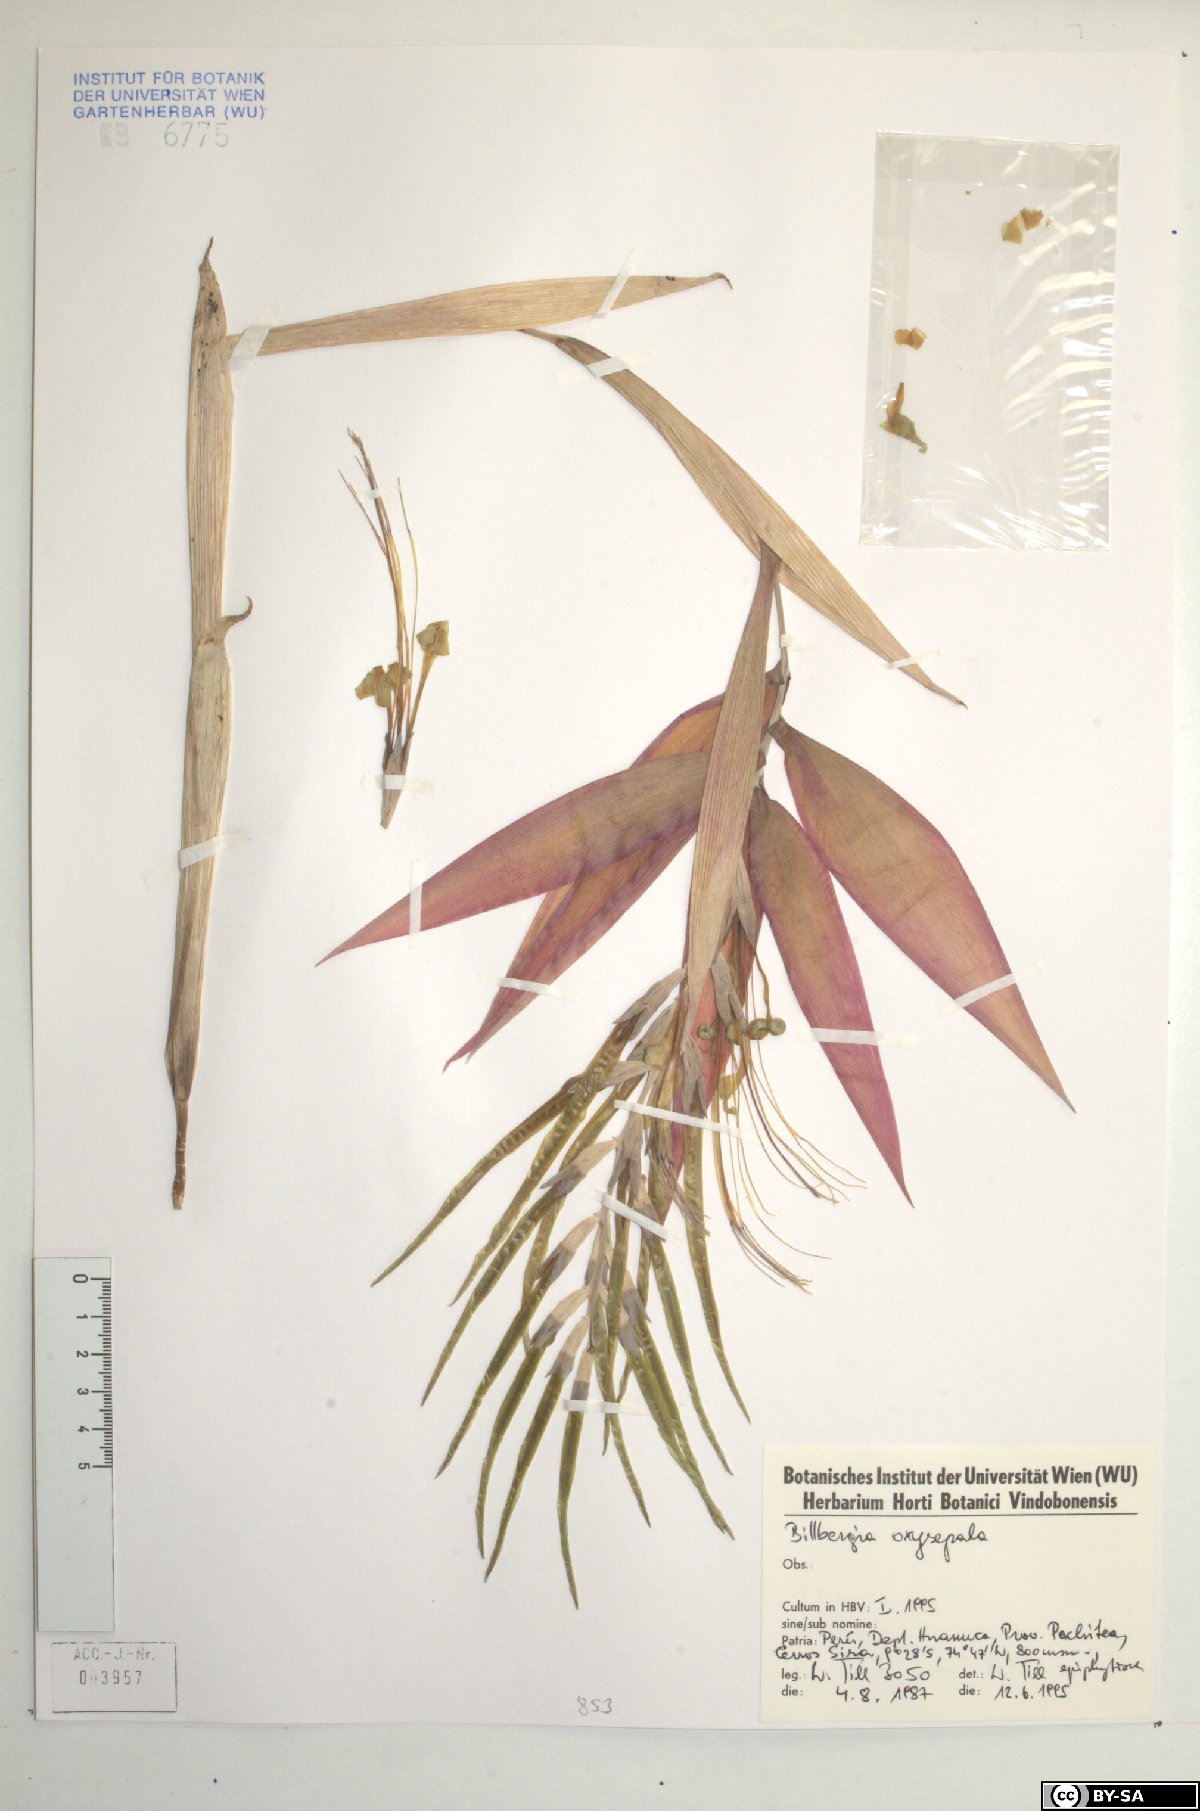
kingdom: Plantae
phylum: Tracheophyta
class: Liliopsida
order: Poales
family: Bromeliaceae
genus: Billbergia
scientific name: Billbergia oxysepala
